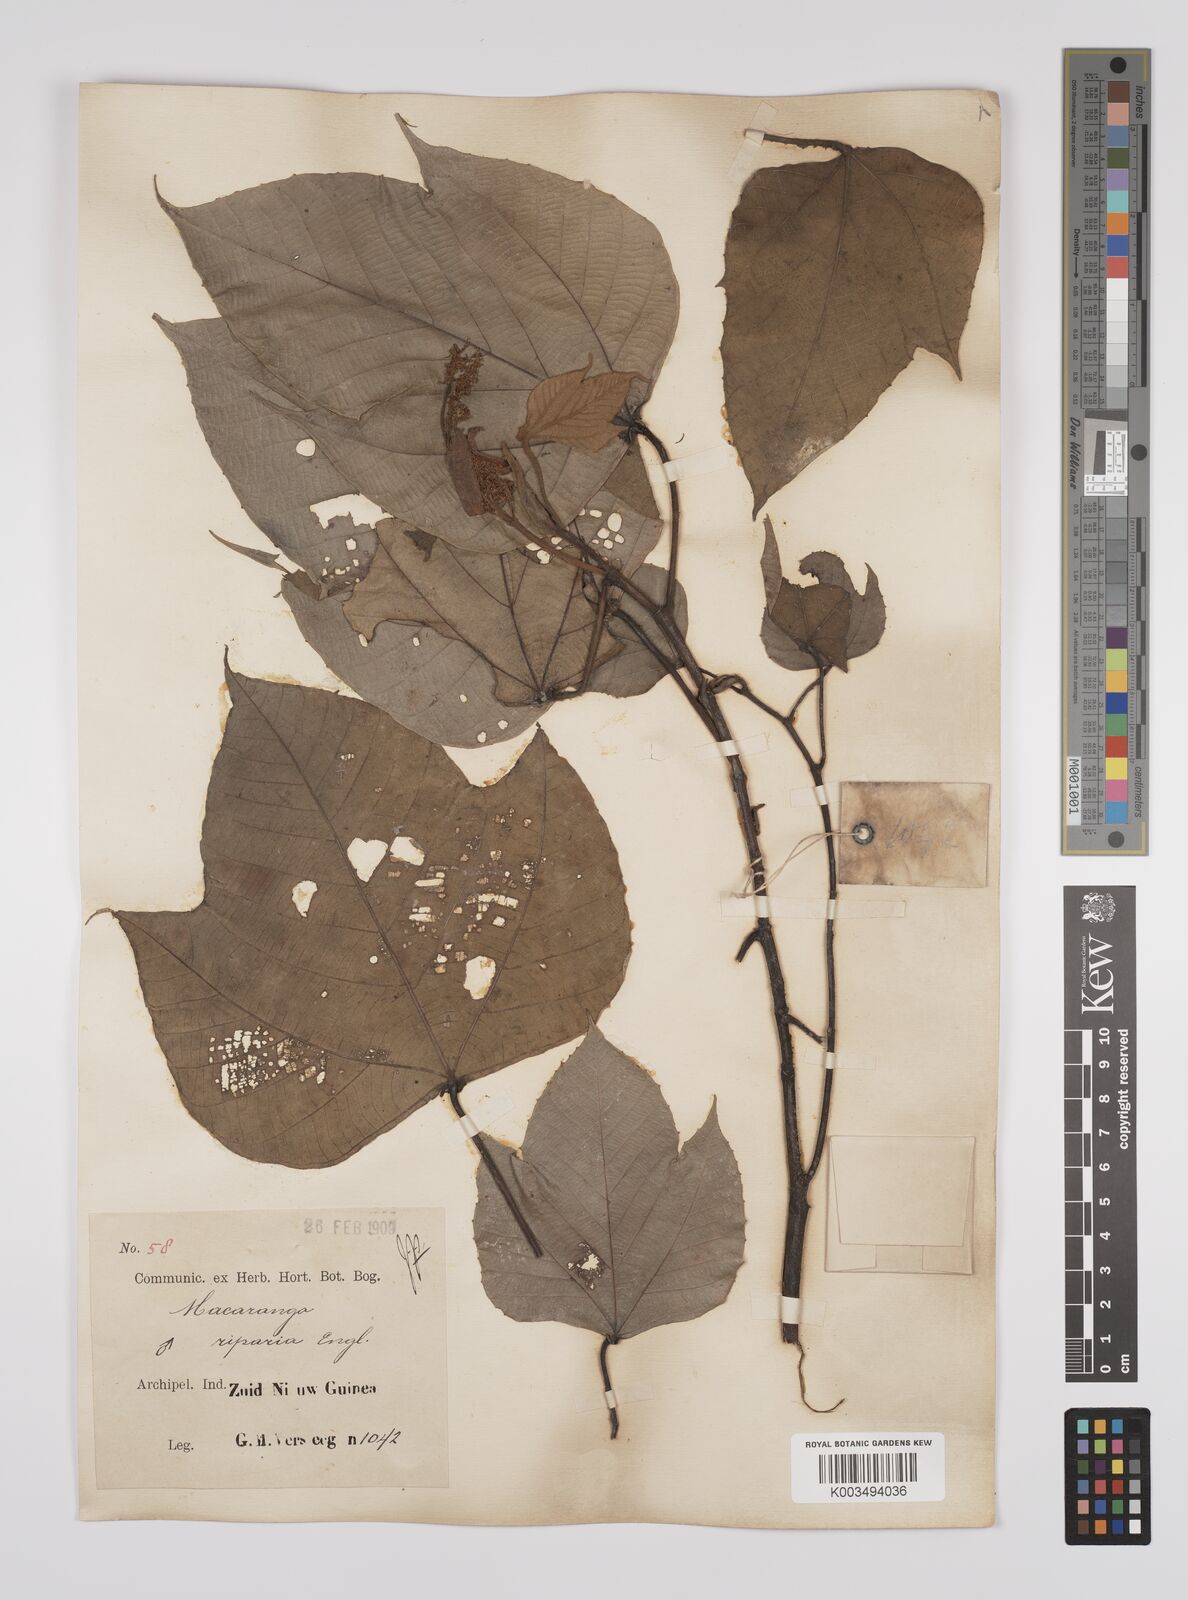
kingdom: Plantae
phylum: Tracheophyta
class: Magnoliopsida
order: Malpighiales
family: Euphorbiaceae
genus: Macaranga
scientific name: Macaranga aleuritoides
